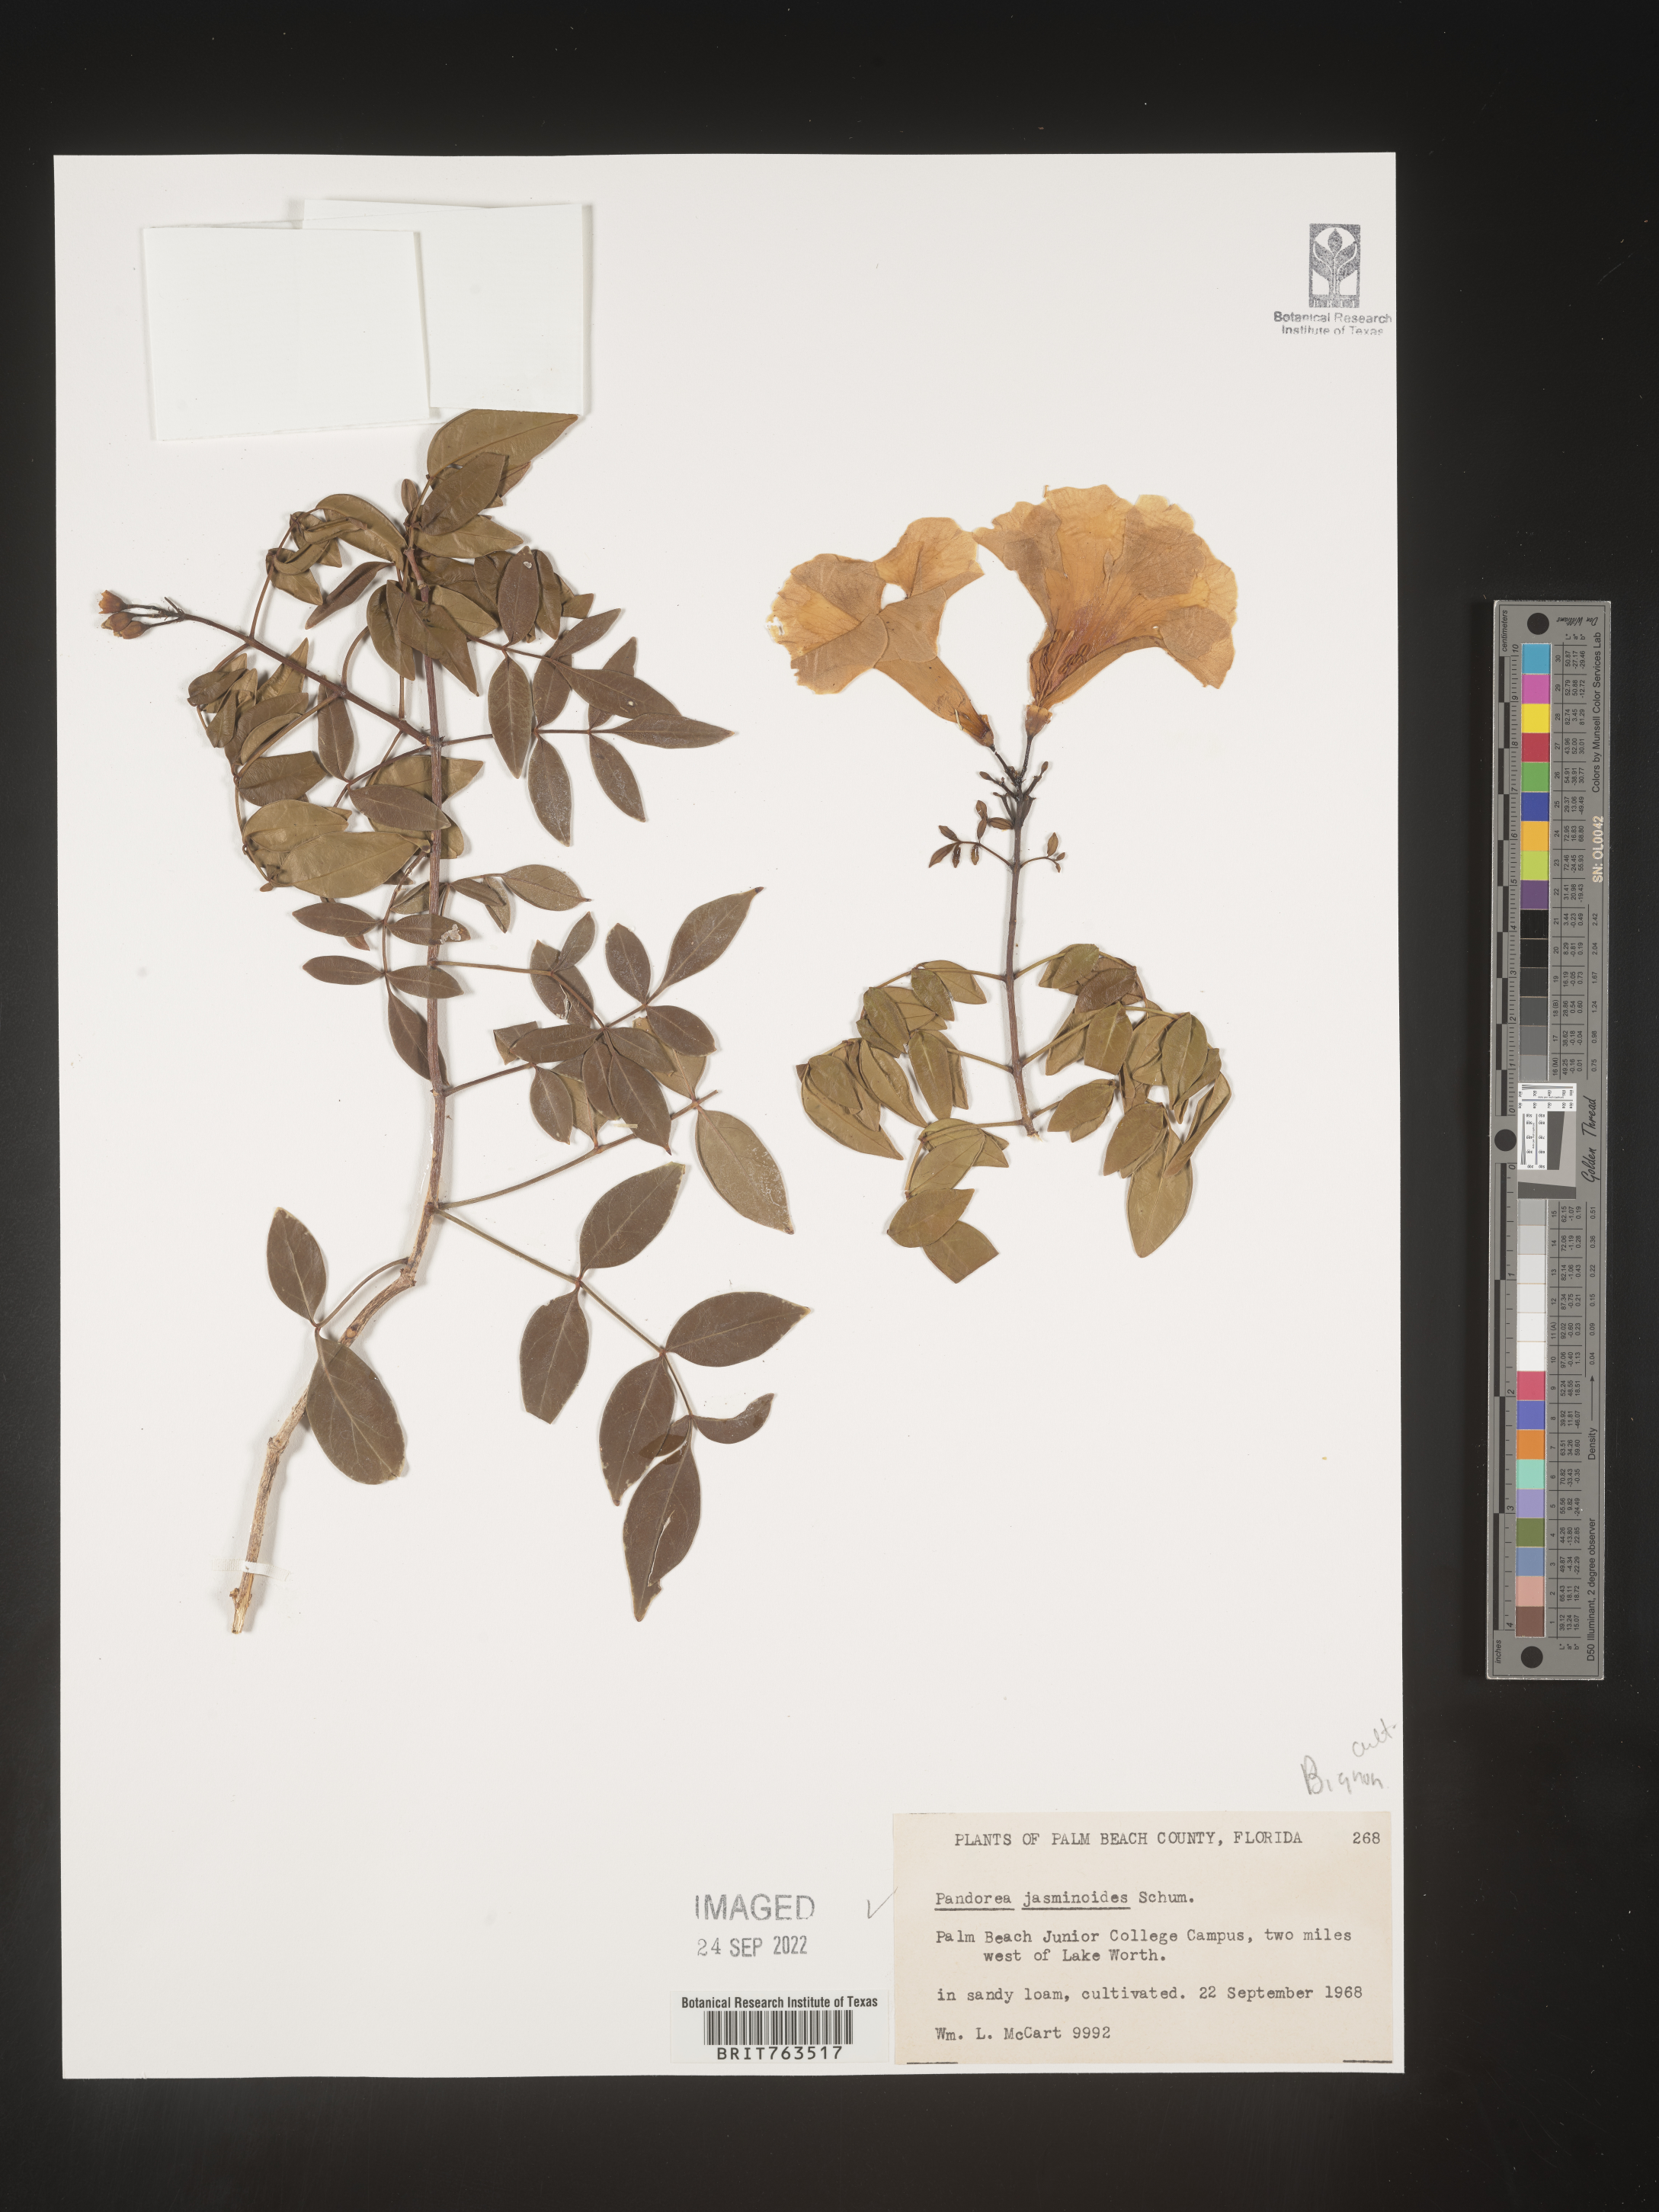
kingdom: Plantae
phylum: Tracheophyta
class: Magnoliopsida
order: Lamiales
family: Bignoniaceae
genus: Pandorea
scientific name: Pandorea
